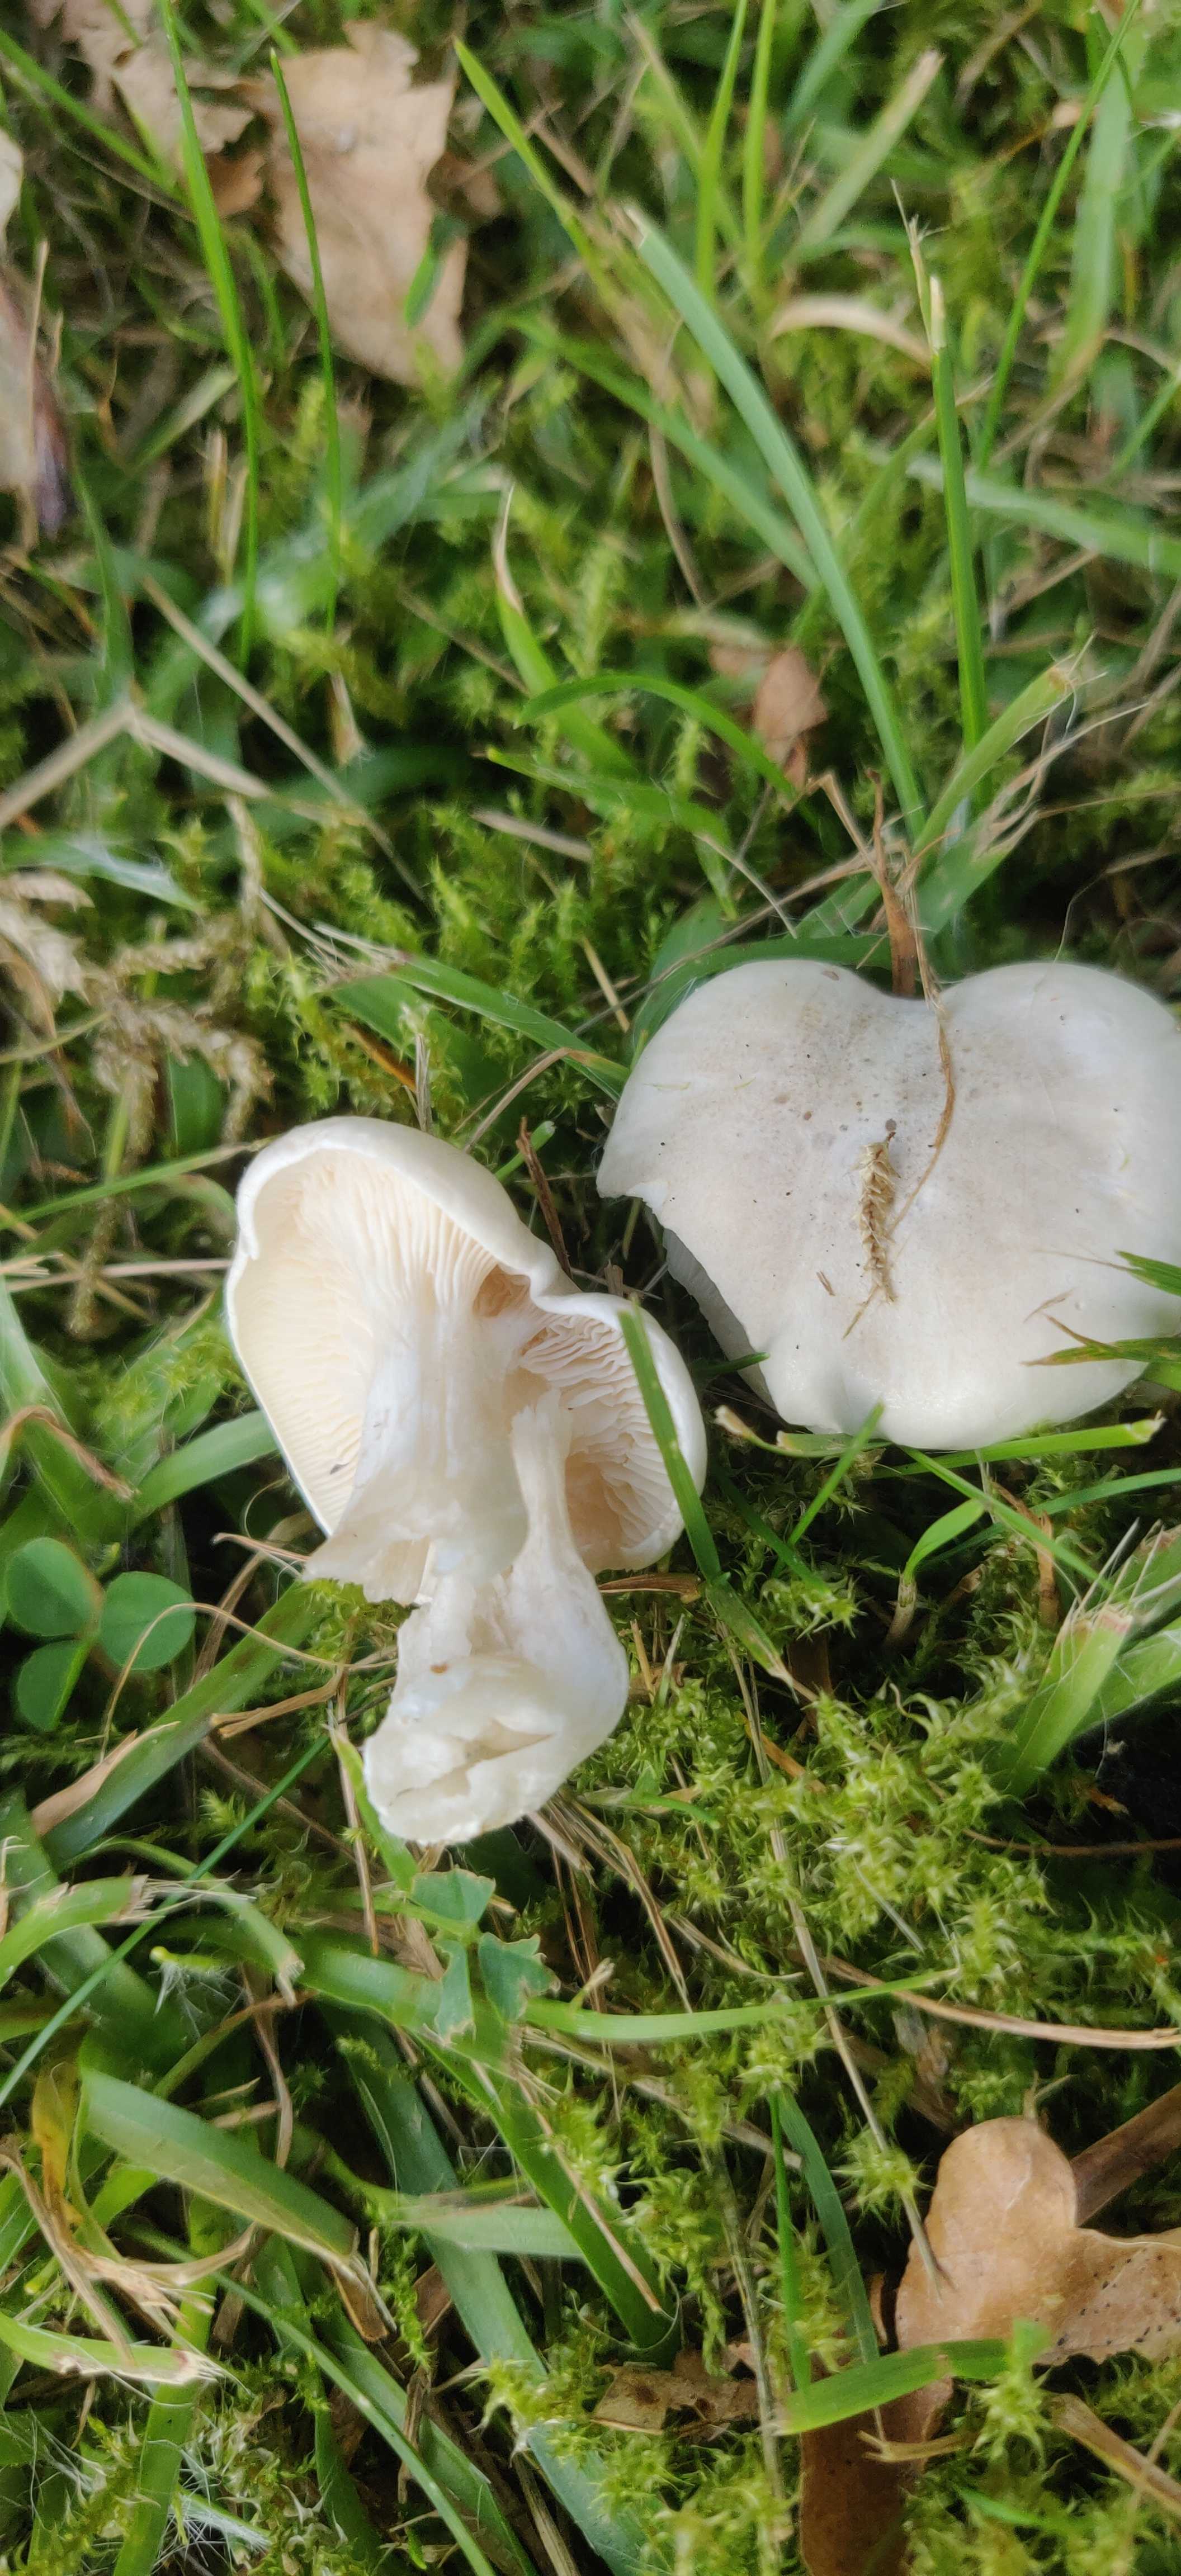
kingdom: Fungi
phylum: Basidiomycota
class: Agaricomycetes
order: Agaricales
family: Entolomataceae
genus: Clitopilus
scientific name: Clitopilus prunulus
